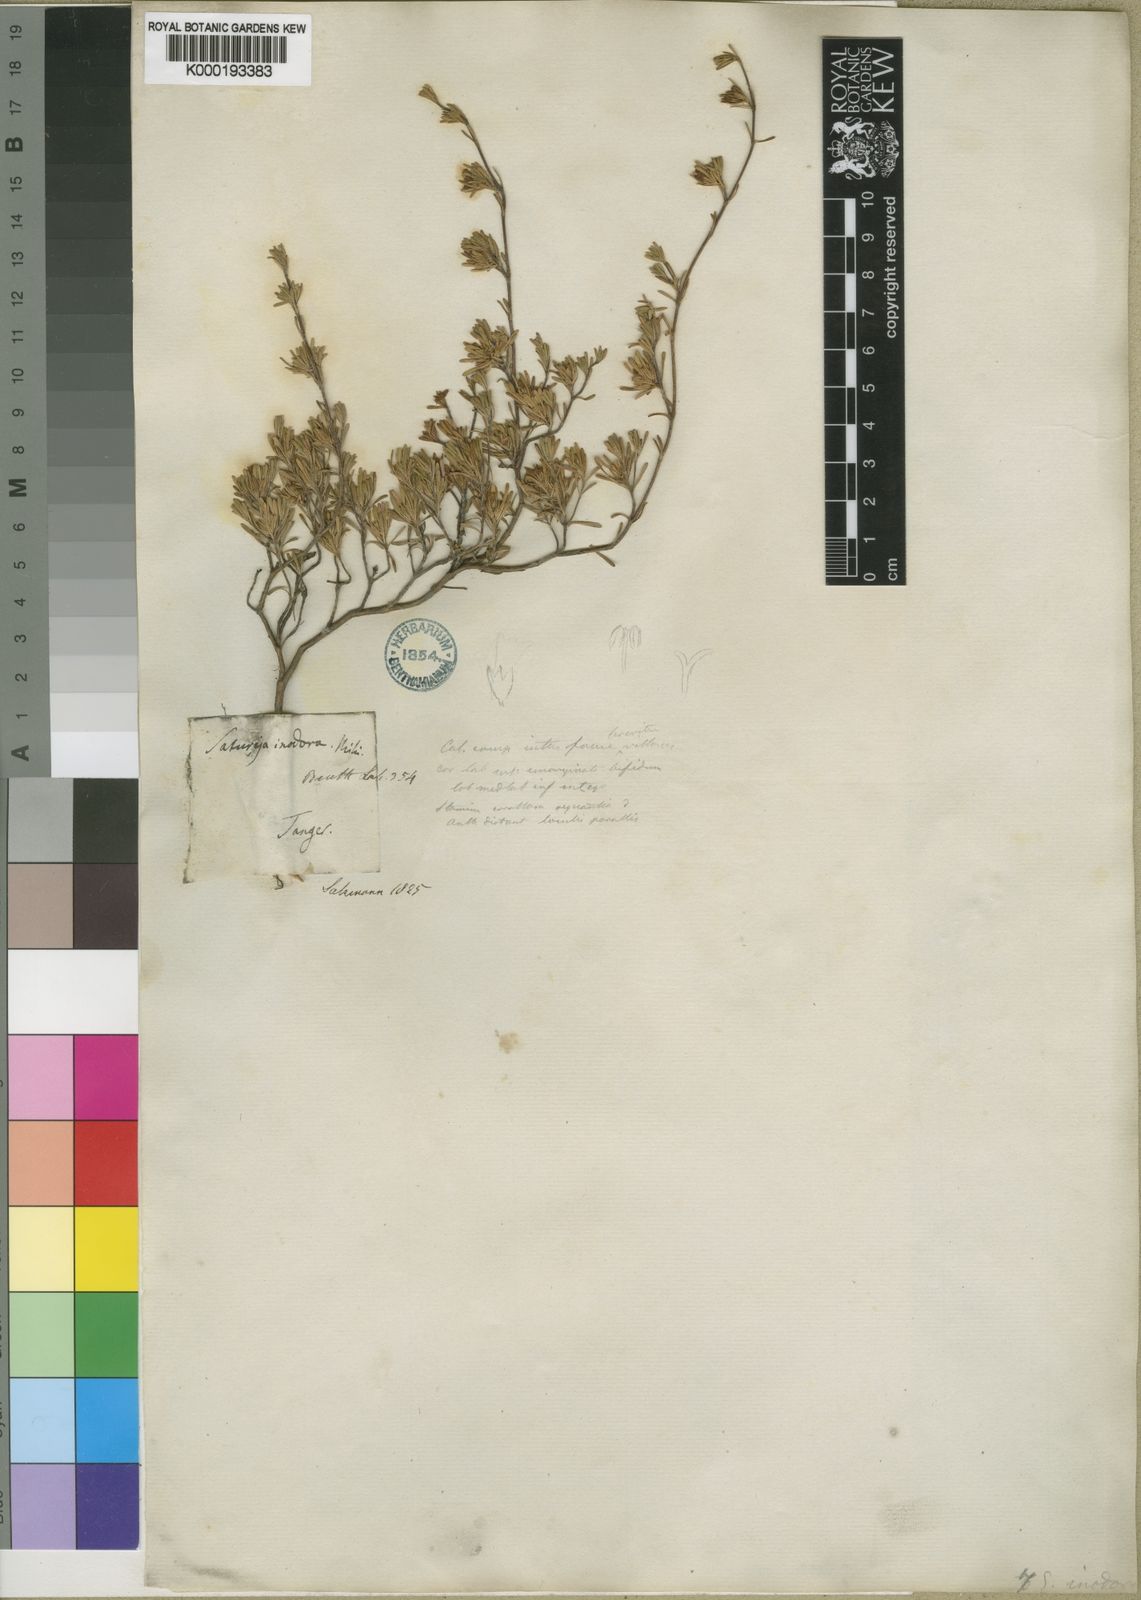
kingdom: Plantae
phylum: Tracheophyta
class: Magnoliopsida
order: Lamiales
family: Lamiaceae
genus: Satureja
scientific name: Satureja
